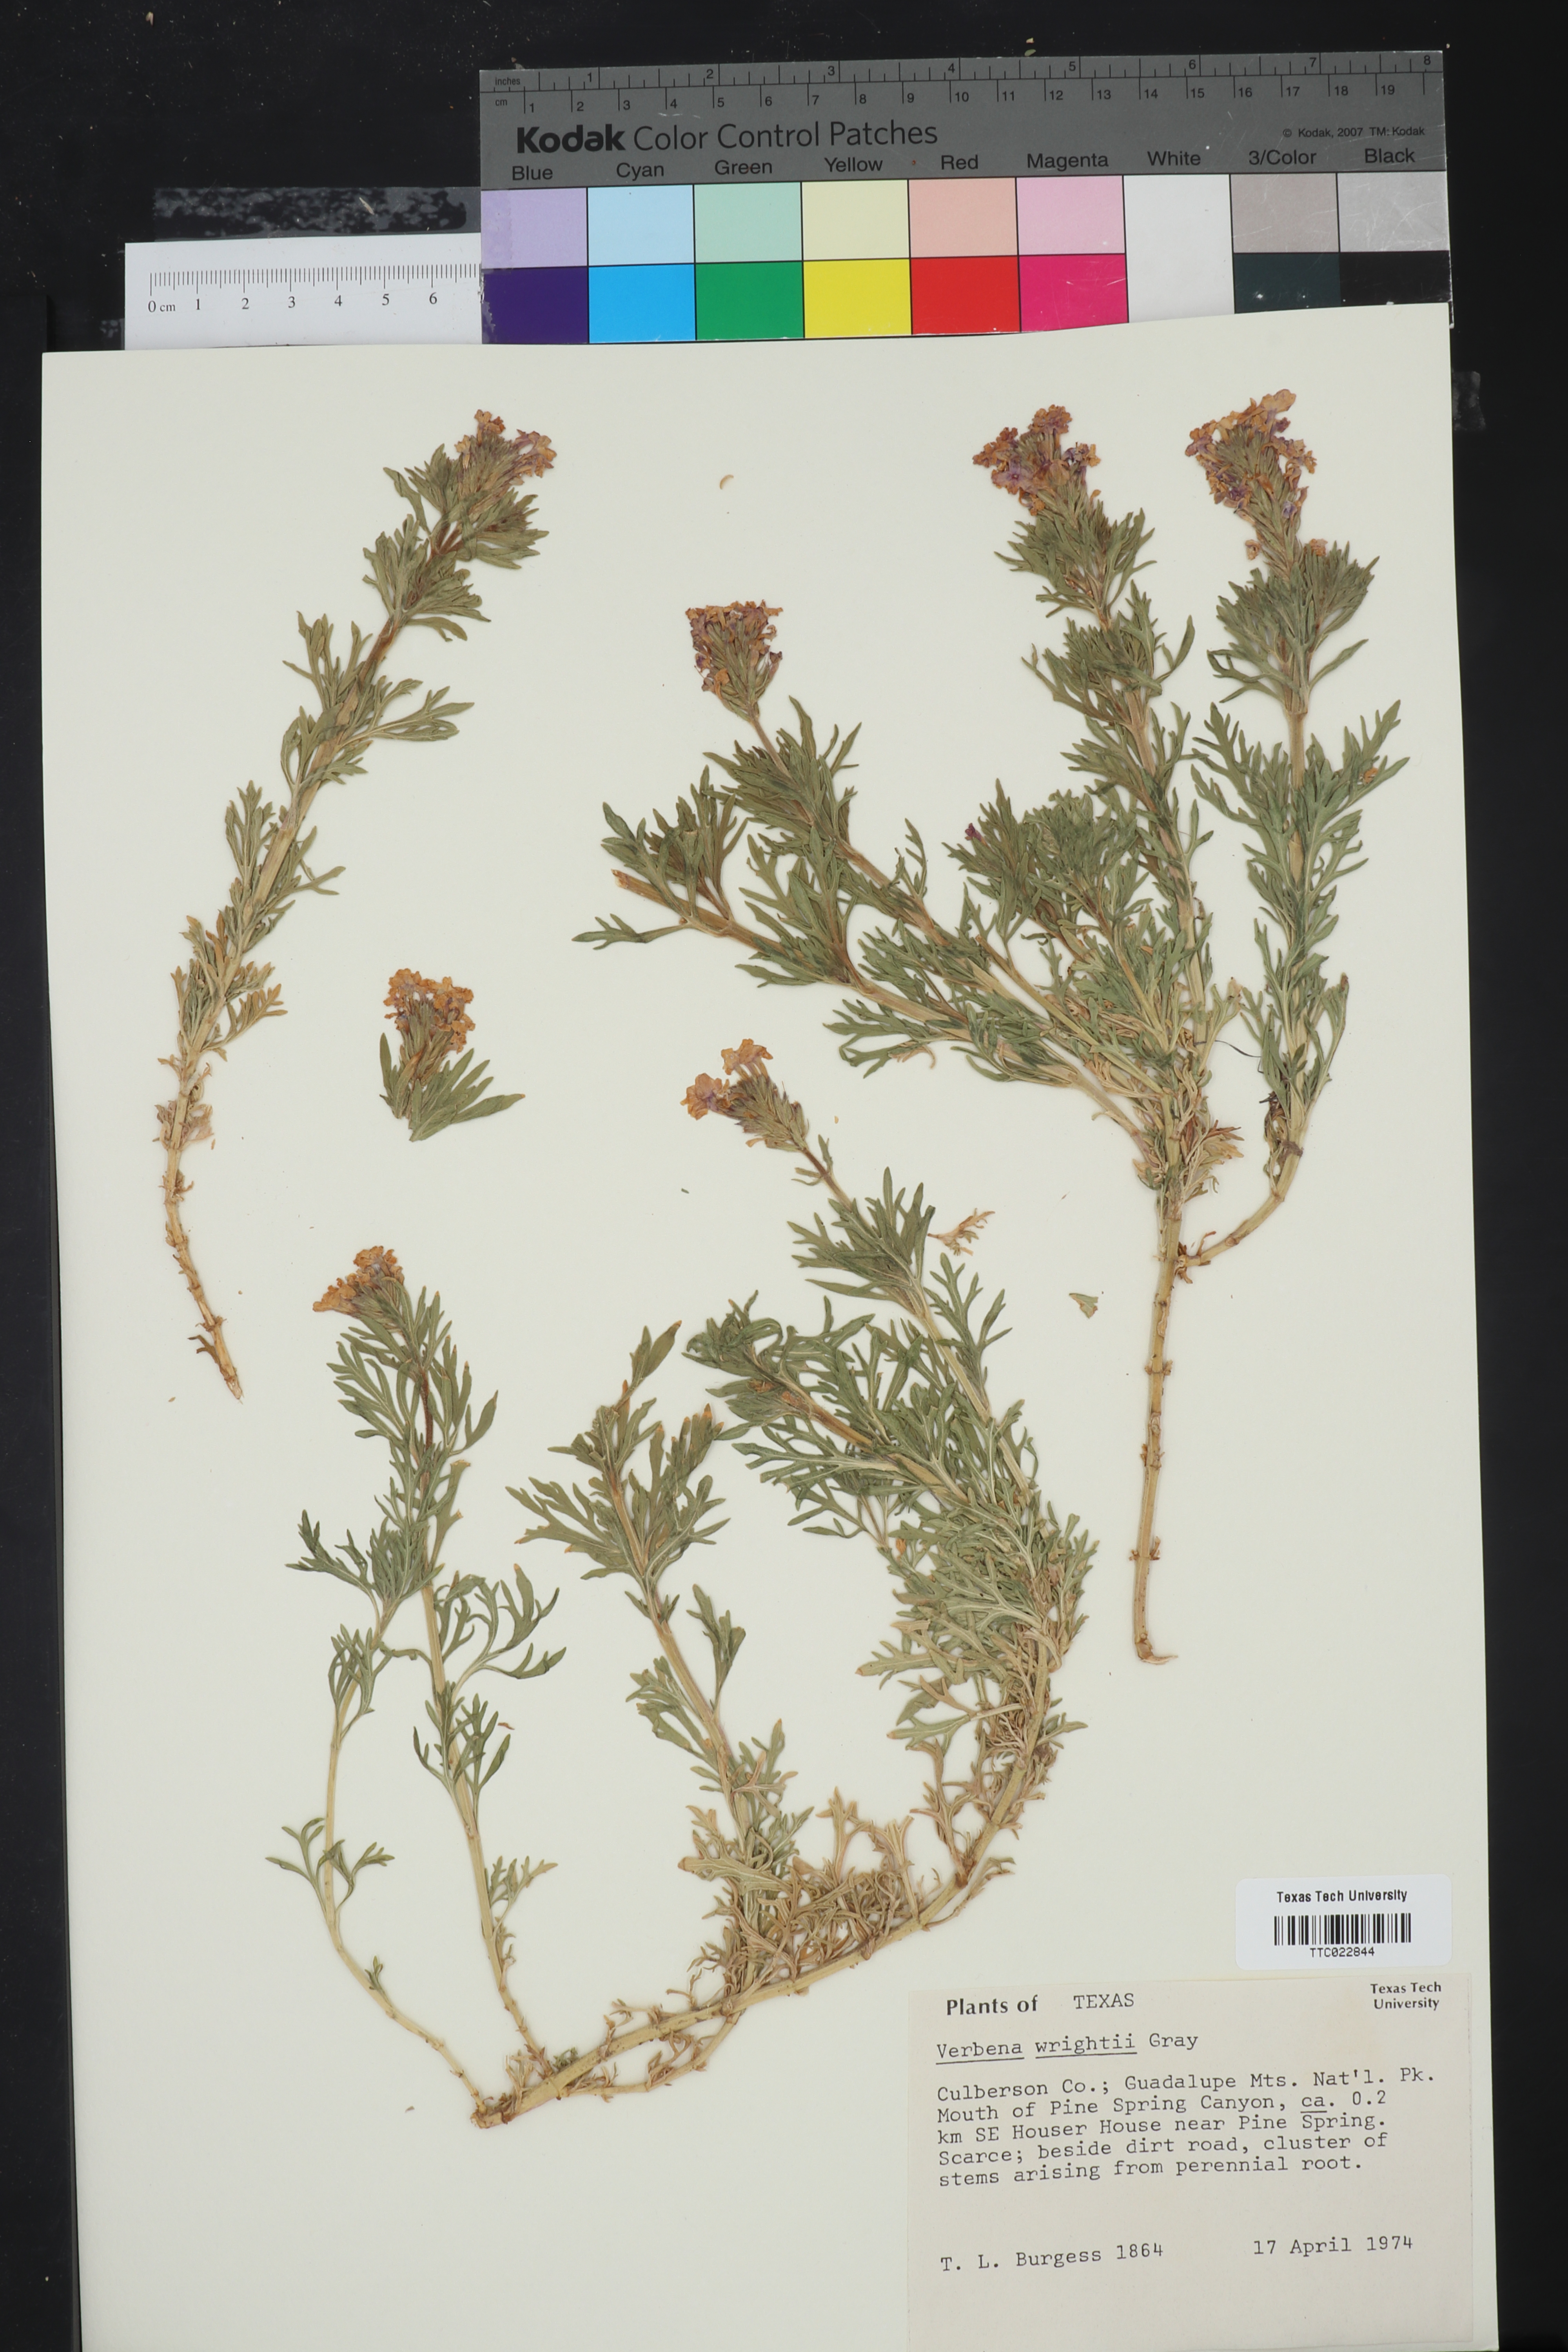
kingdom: Plantae
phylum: Tracheophyta
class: Magnoliopsida
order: Lamiales
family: Verbenaceae
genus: Verbena
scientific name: Verbena bipinnatifida
